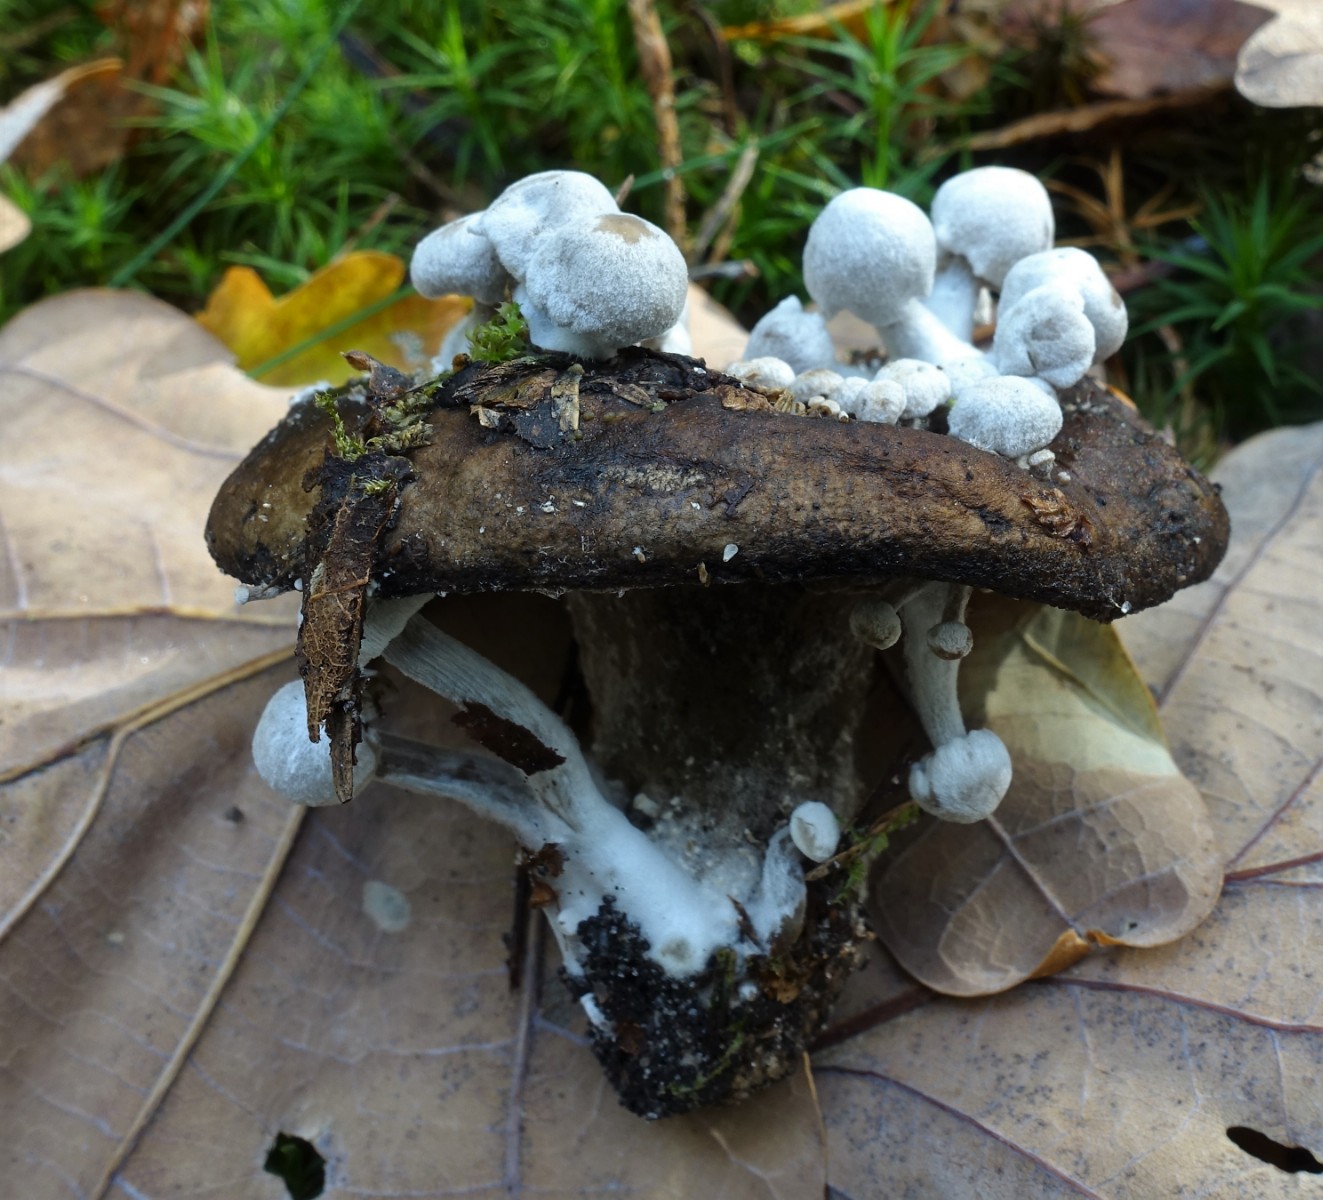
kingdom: Fungi
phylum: Basidiomycota
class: Agaricomycetes
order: Agaricales
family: Lyophyllaceae
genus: Asterophora
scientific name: Asterophora parasitica
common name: grå snyltehat
